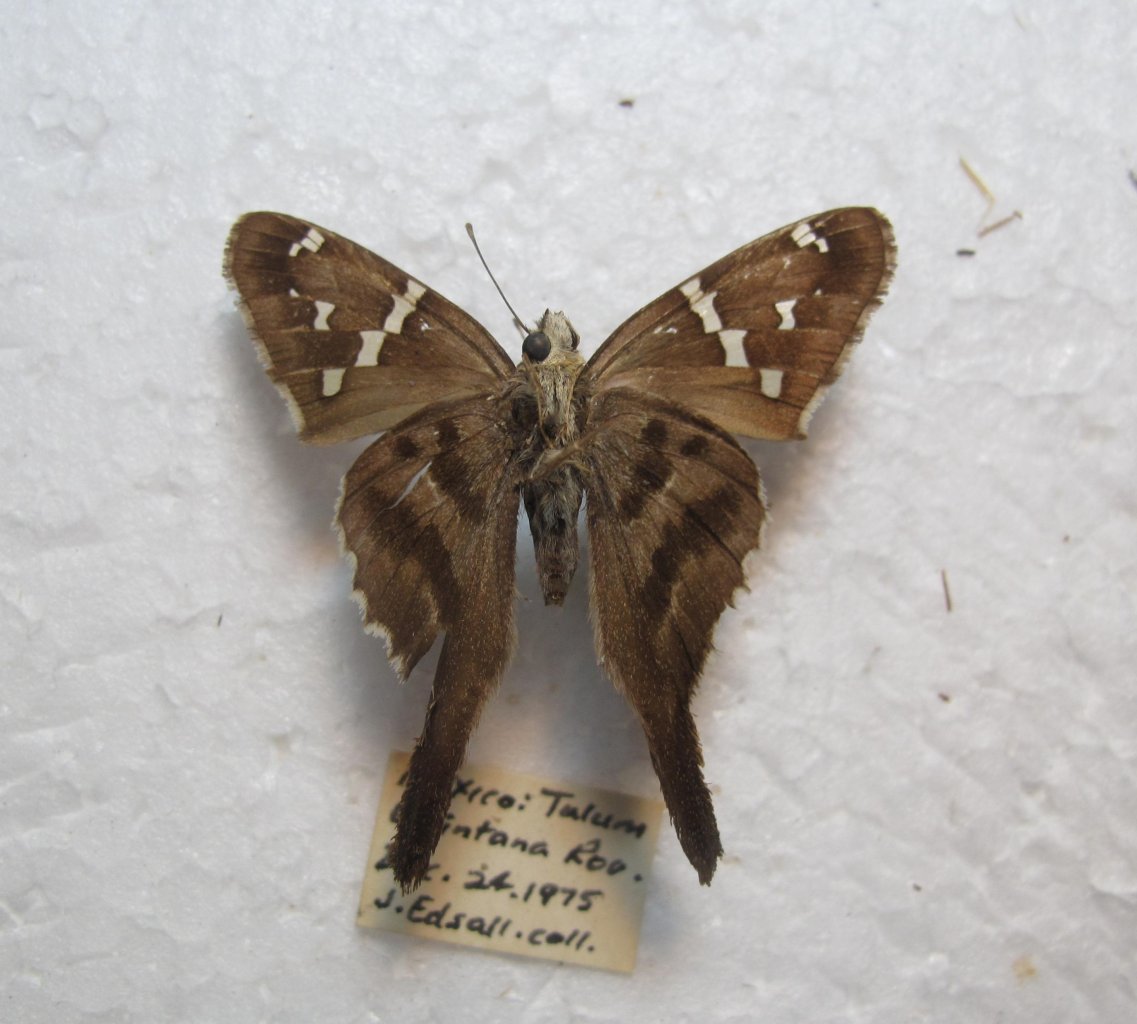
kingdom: Animalia
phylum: Arthropoda
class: Insecta
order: Lepidoptera
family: Hesperiidae
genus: Urbanus
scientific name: Urbanus proteus
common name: Long-tailed Skipper
